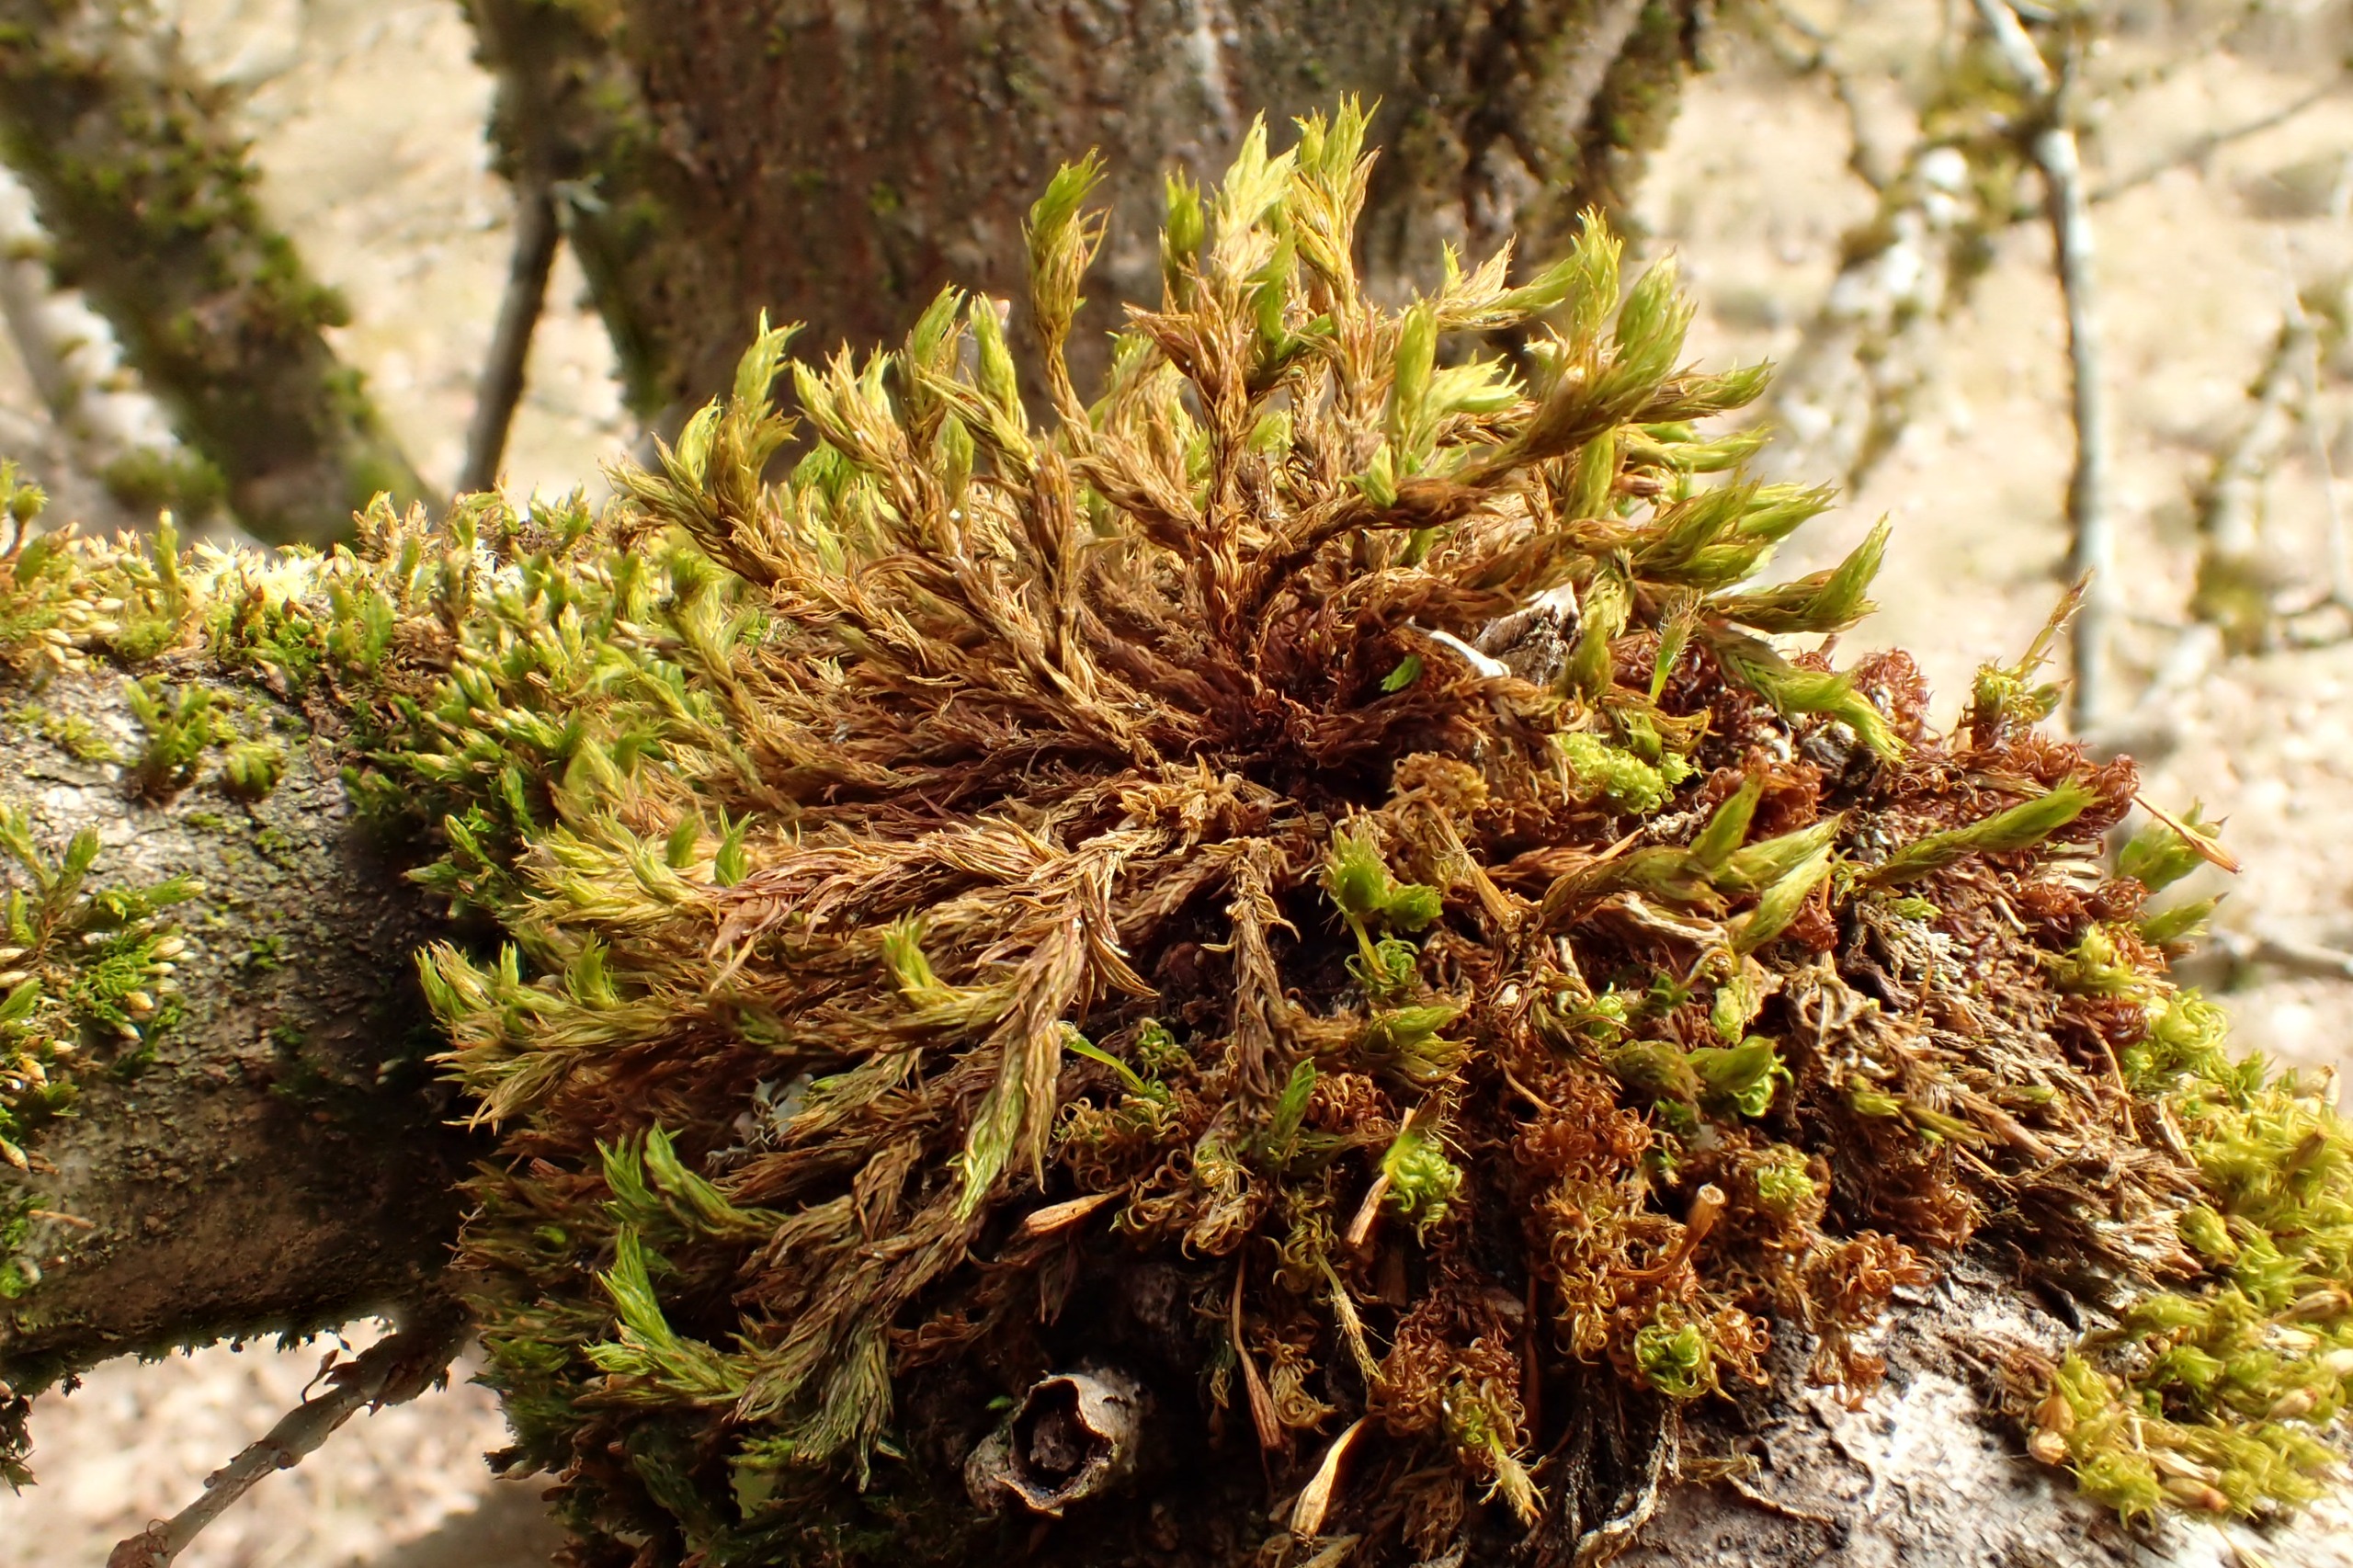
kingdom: Plantae
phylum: Bryophyta
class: Bryopsida
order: Orthotrichales
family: Orthotrichaceae
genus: Lewinskya
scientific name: Lewinskya striata
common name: Glatkapslet furehætte
